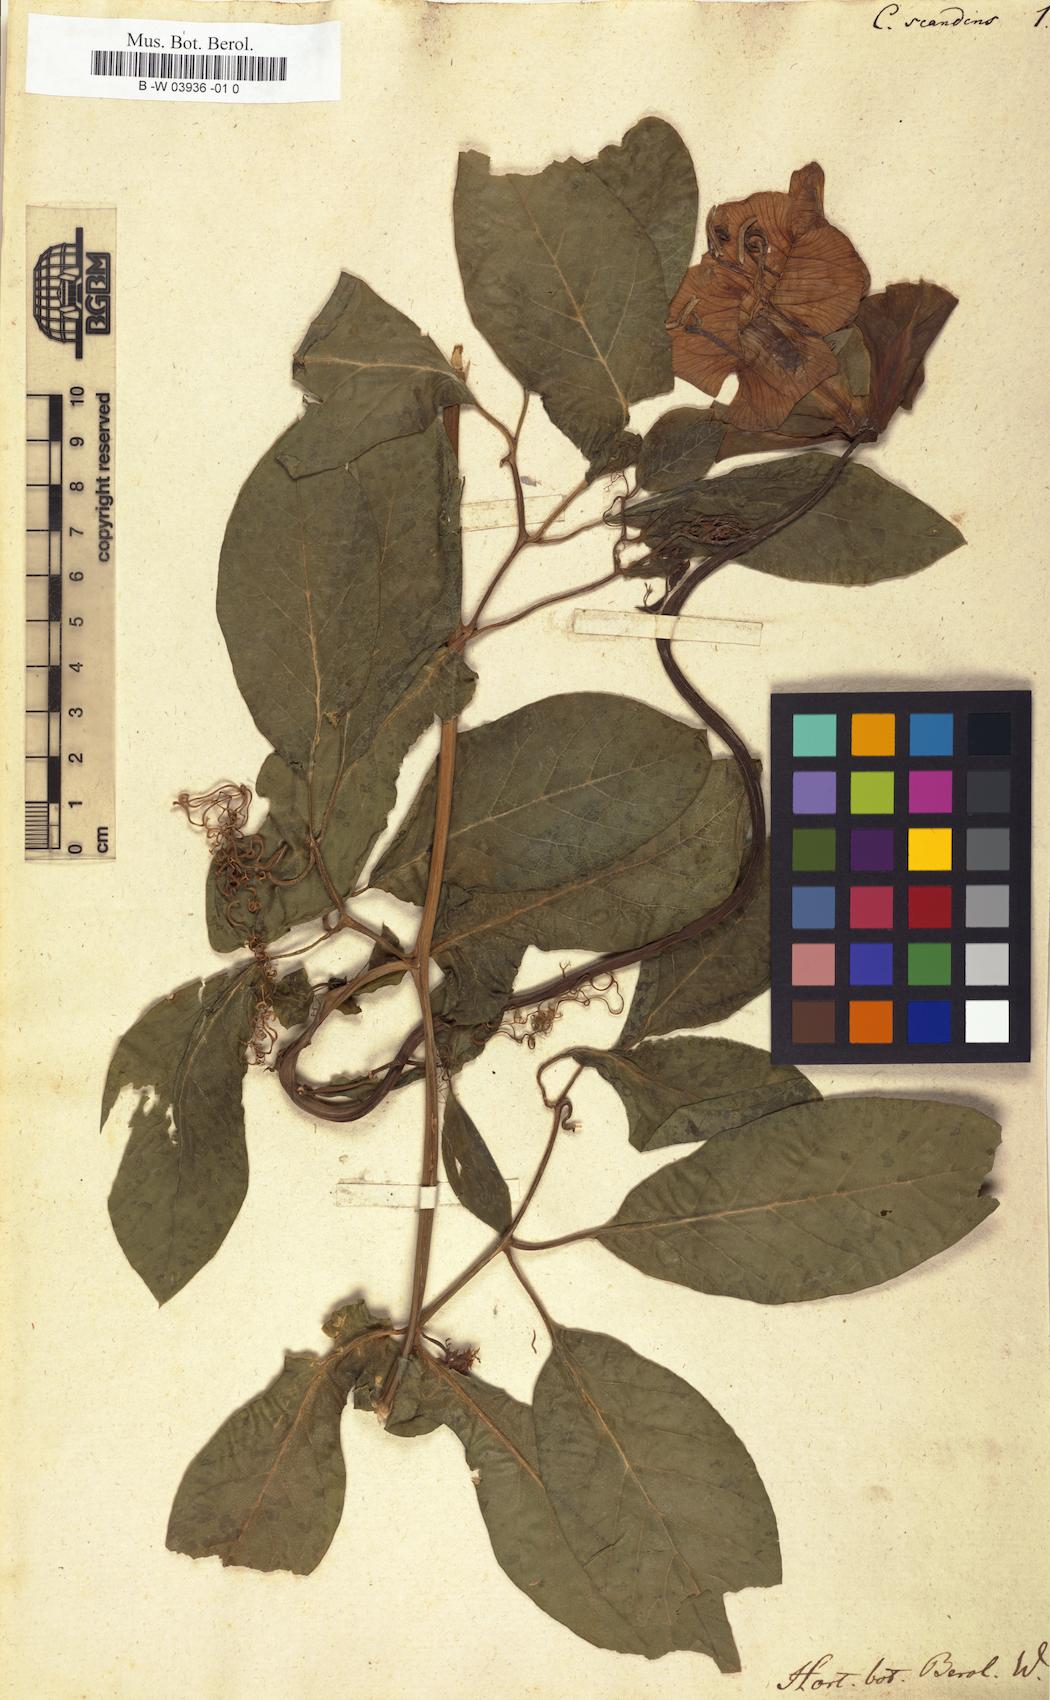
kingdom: Plantae
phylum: Tracheophyta
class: Magnoliopsida
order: Ericales
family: Polemoniaceae
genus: Cobaea
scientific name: Cobaea scandens
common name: Cup-and-saucer-vine
